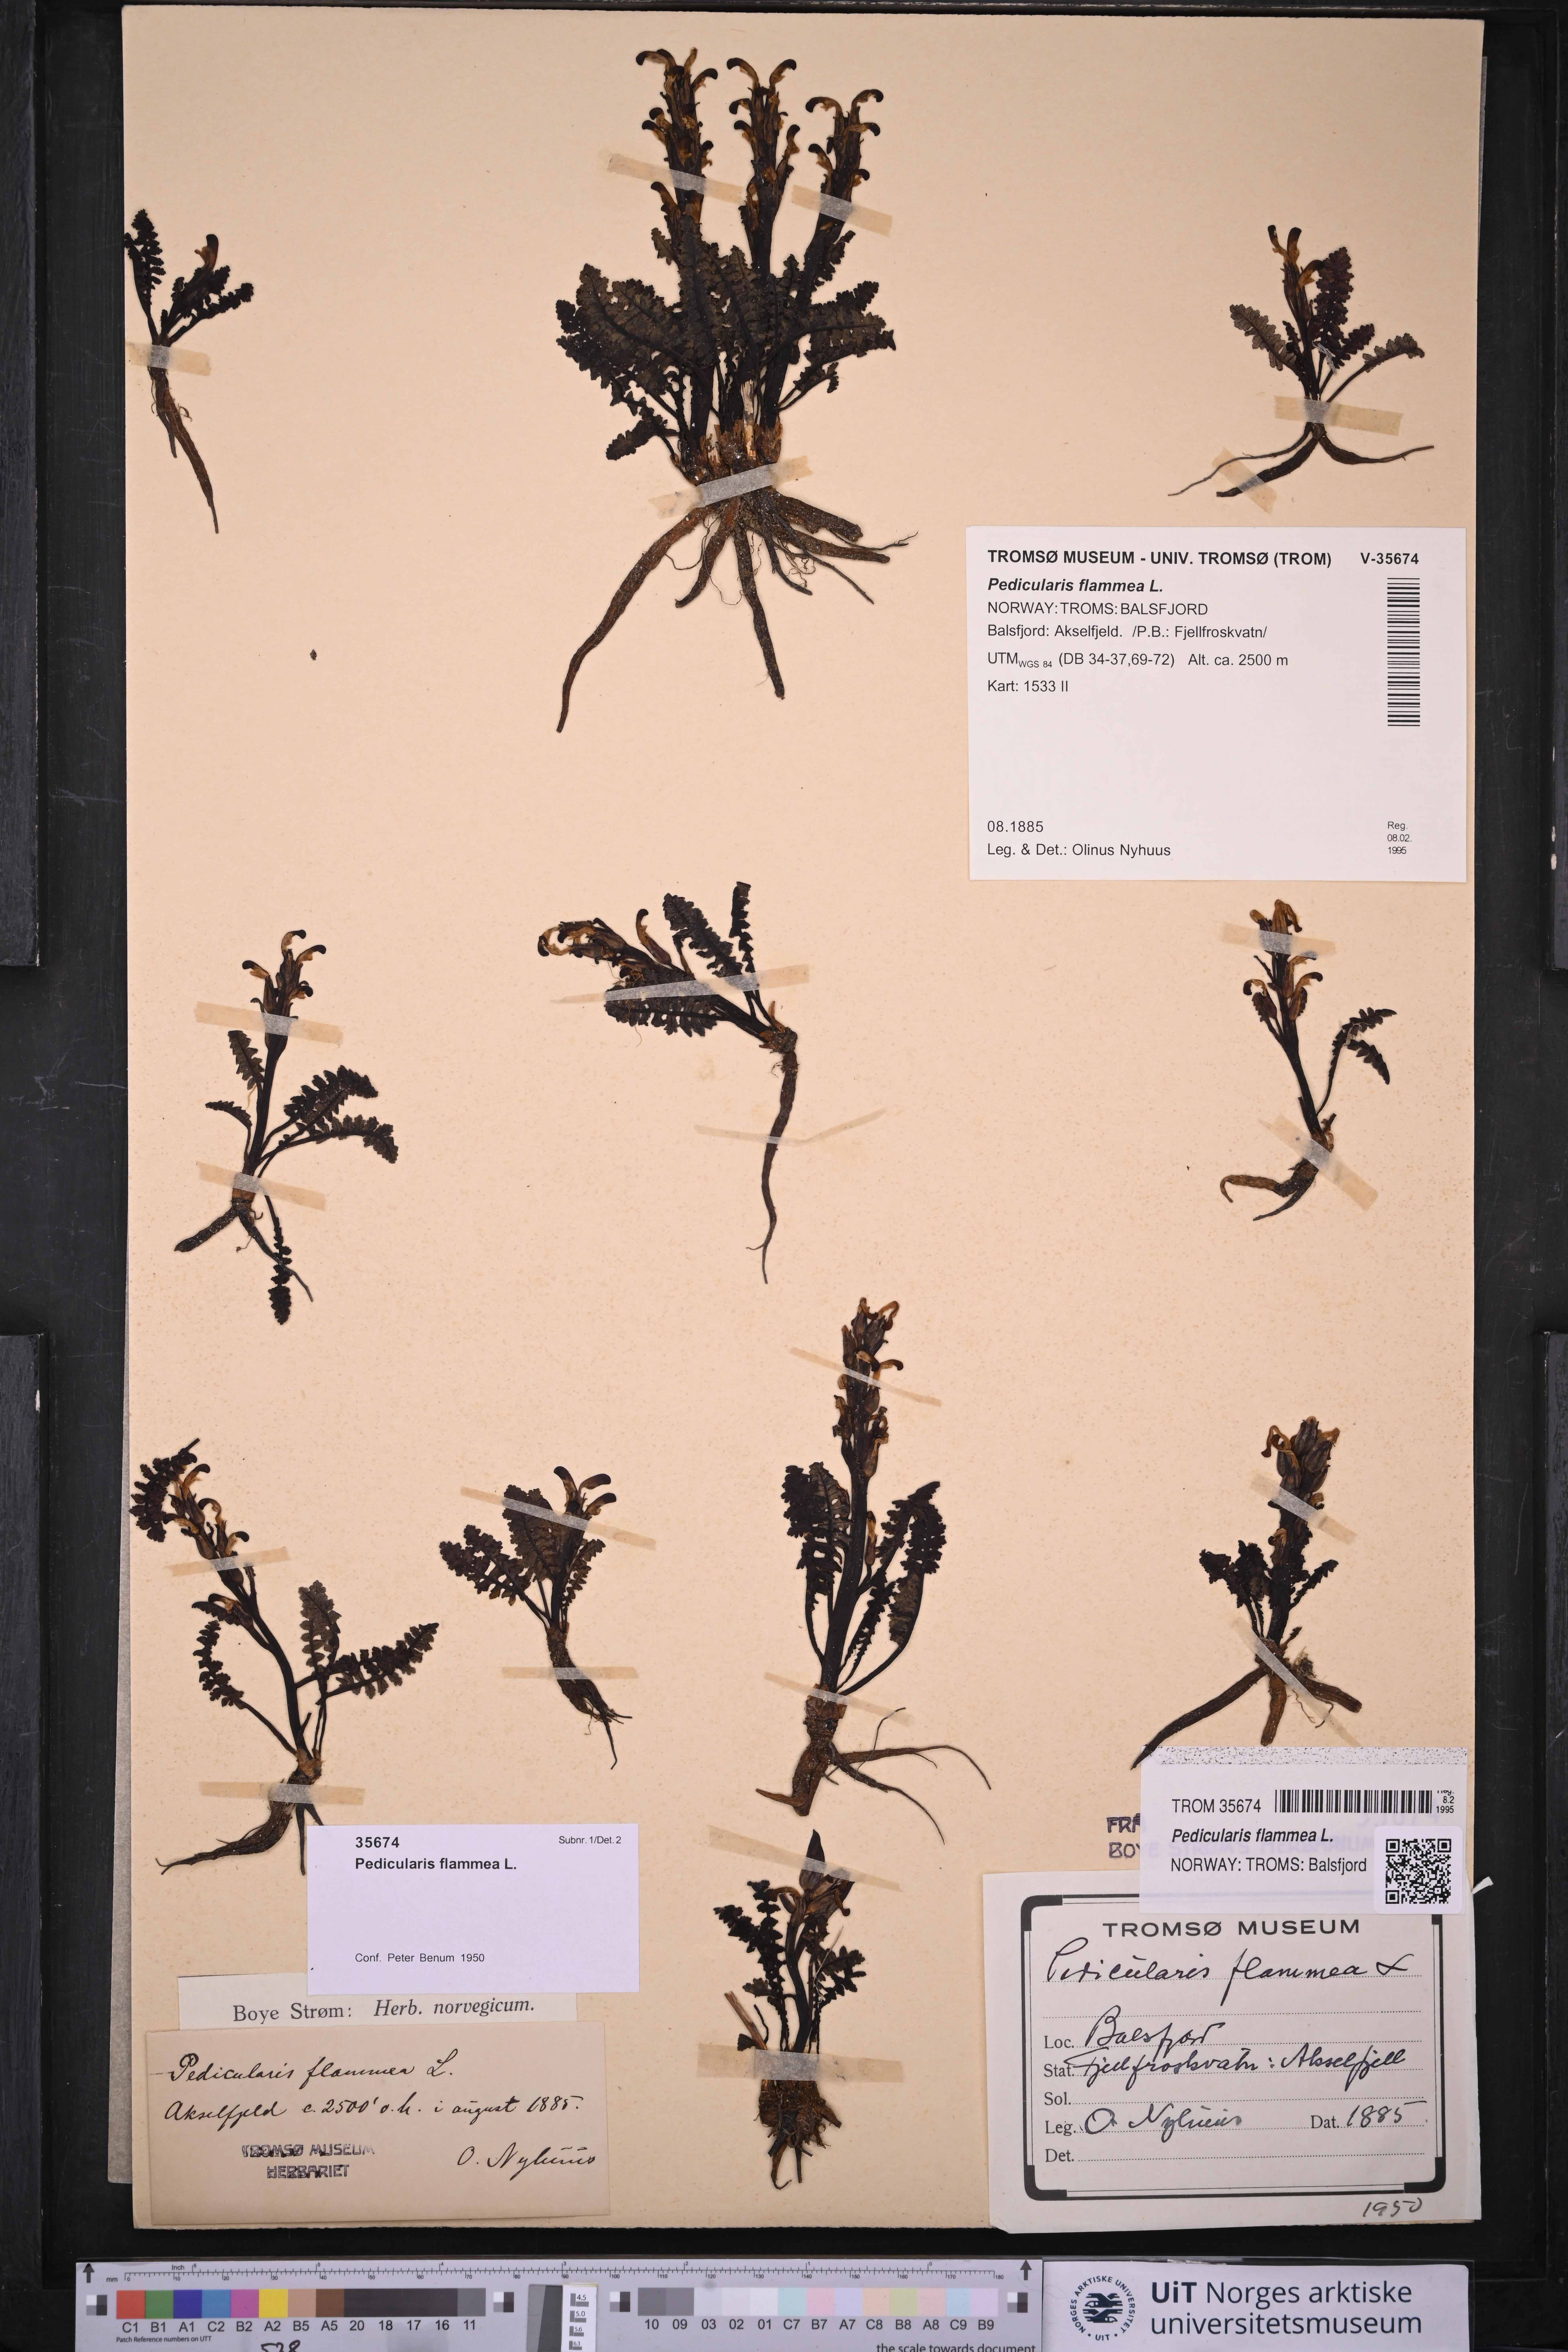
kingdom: Plantae
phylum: Tracheophyta
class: Magnoliopsida
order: Lamiales
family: Orobanchaceae
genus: Pedicularis
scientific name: Pedicularis flammea
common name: Flame-coloured lousewort
